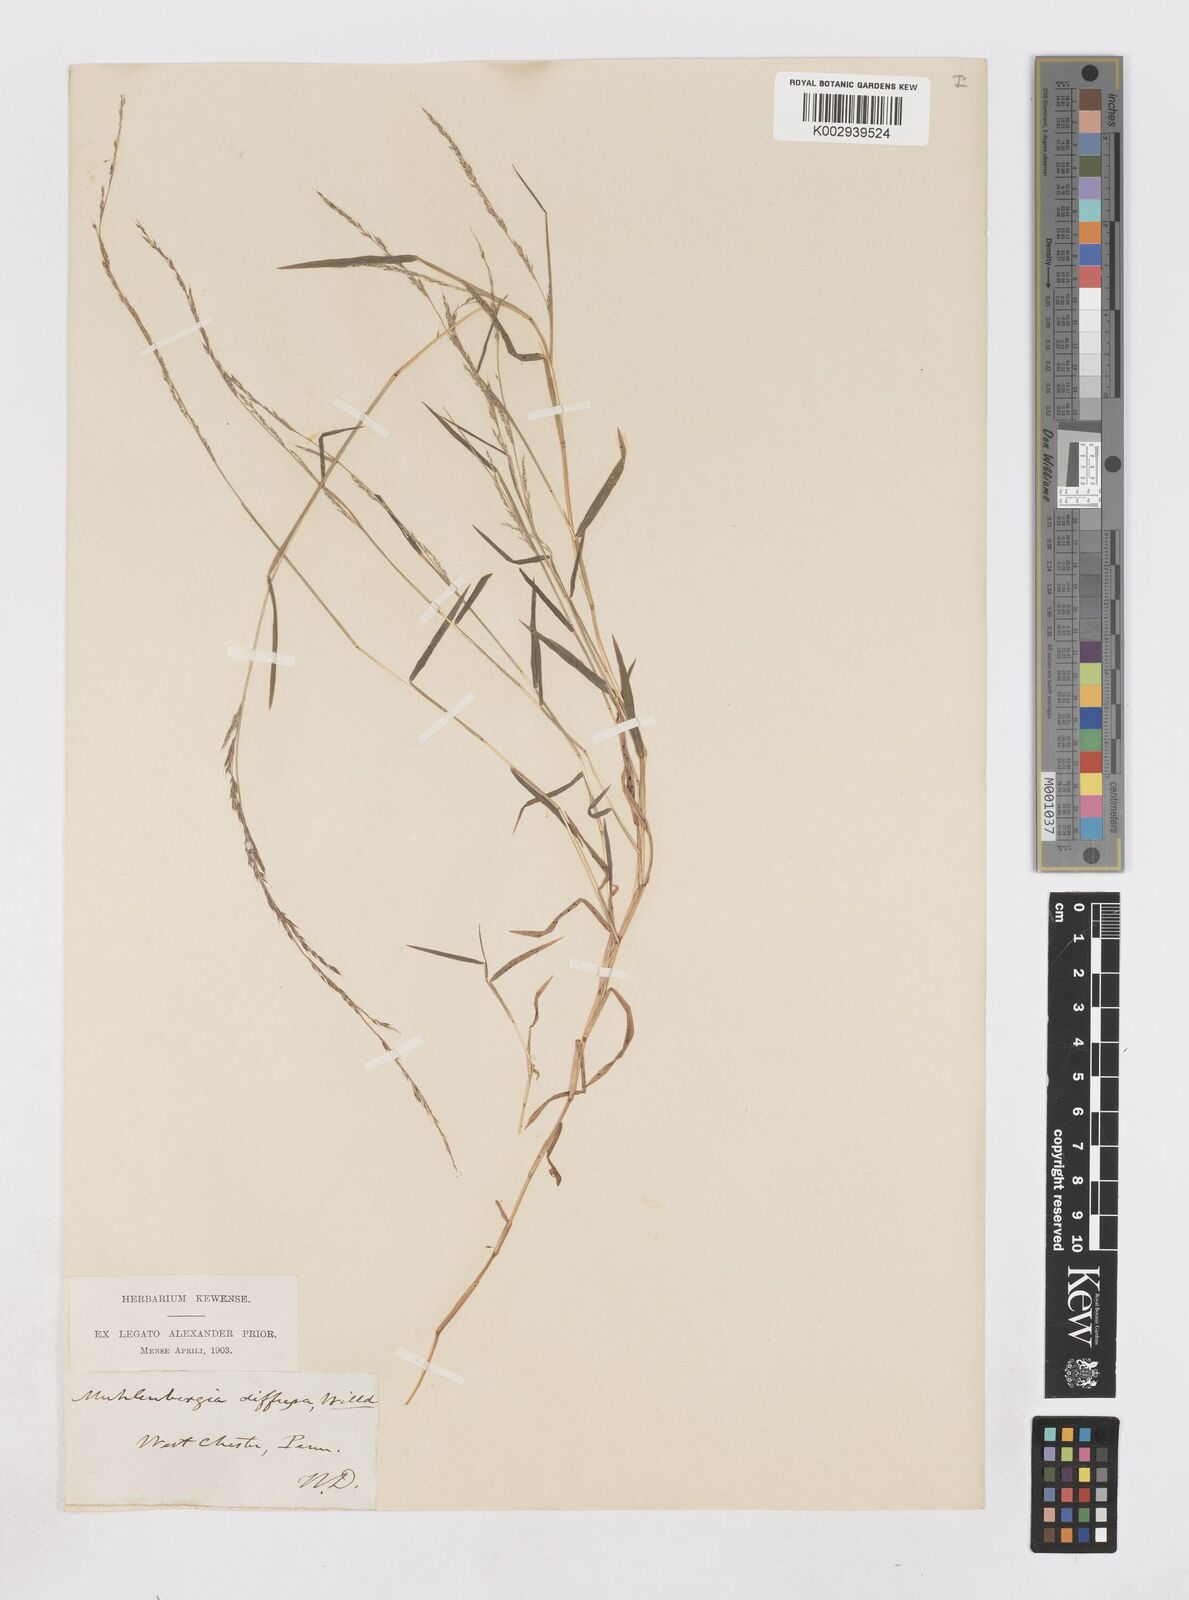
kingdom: Plantae
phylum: Tracheophyta
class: Liliopsida
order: Poales
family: Poaceae
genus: Muhlenbergia
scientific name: Muhlenbergia schreberi
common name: Nimblewill
